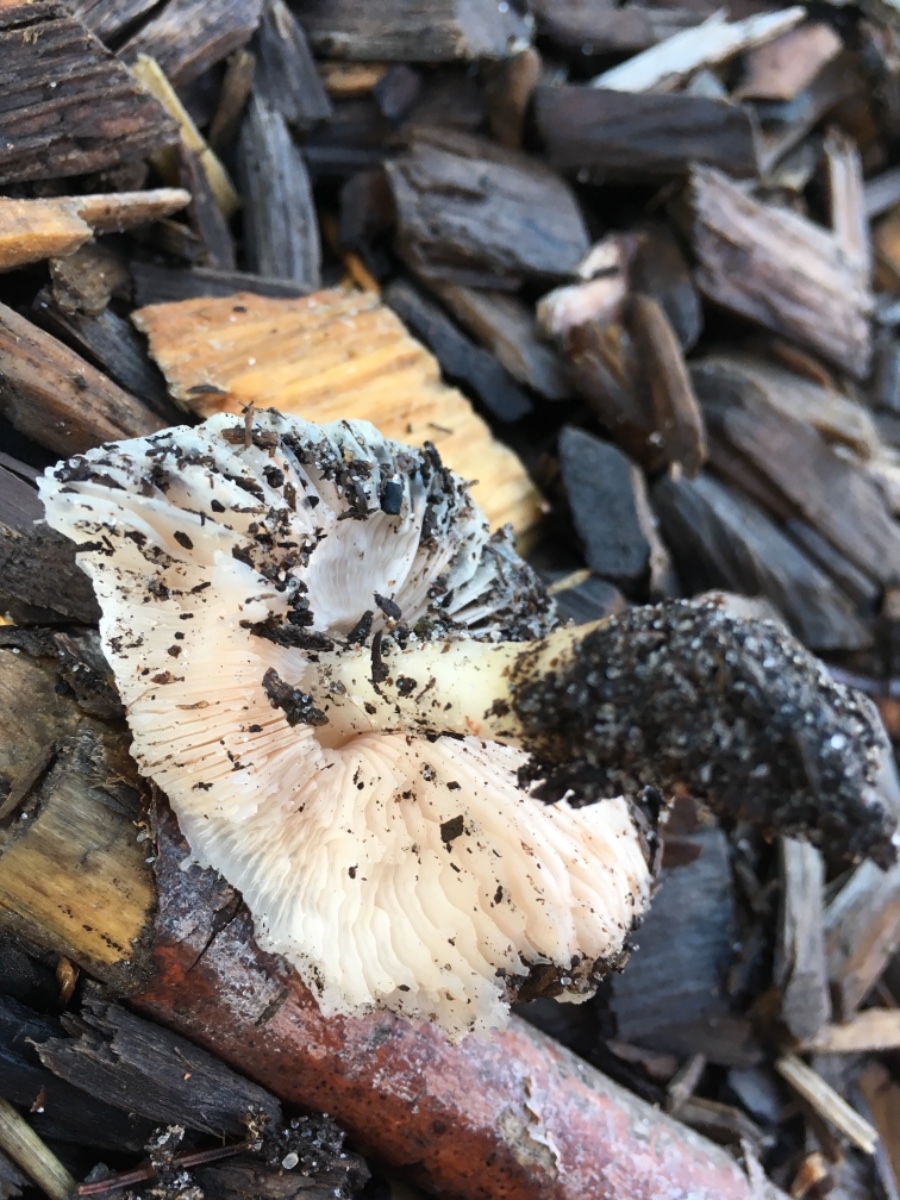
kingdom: Fungi
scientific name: Fungi
